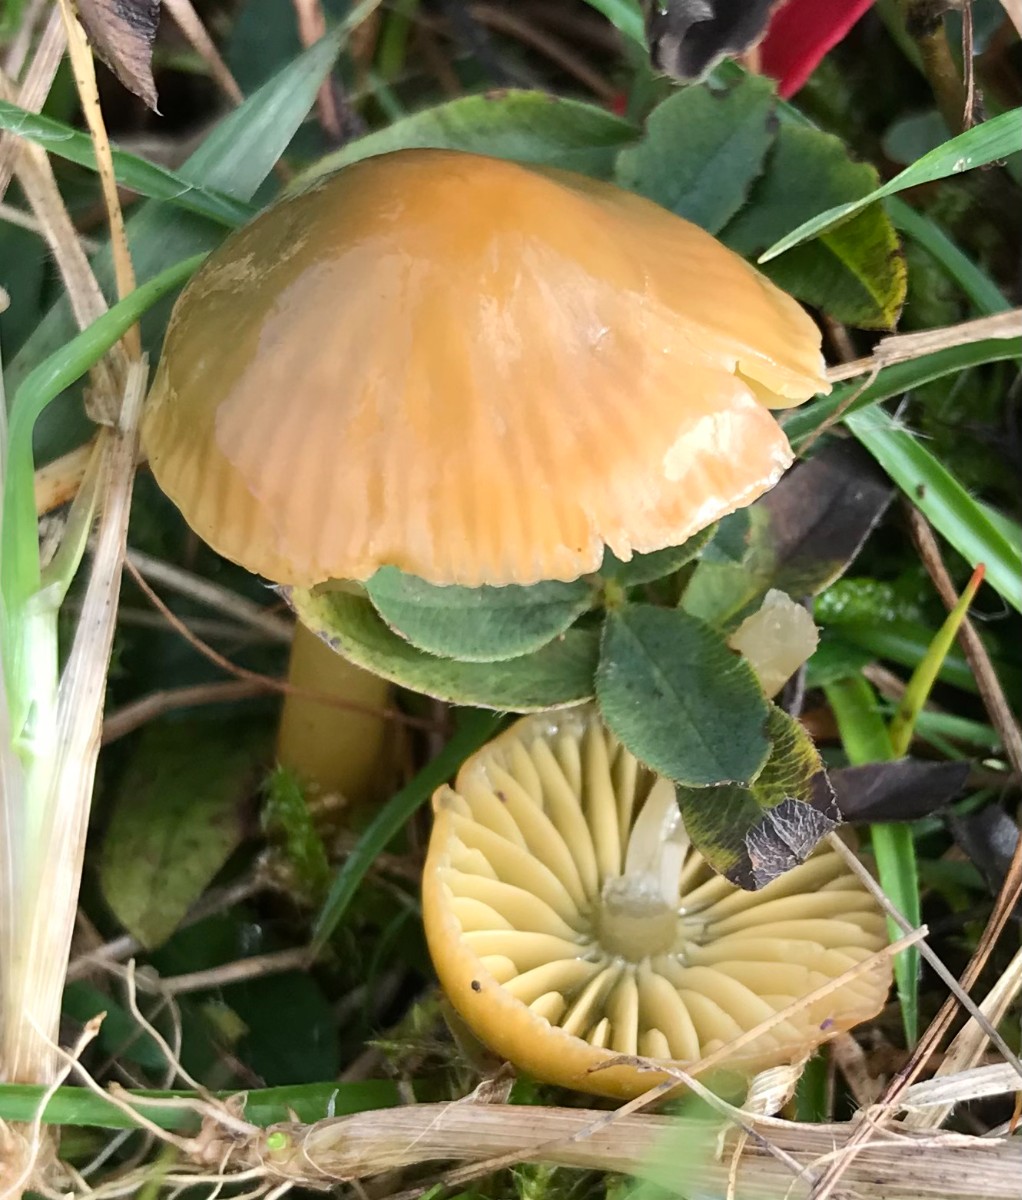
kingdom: Fungi
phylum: Basidiomycota
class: Agaricomycetes
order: Agaricales
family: Hygrophoraceae
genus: Gliophorus
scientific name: Gliophorus psittacinus
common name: papegøje-vokshat
